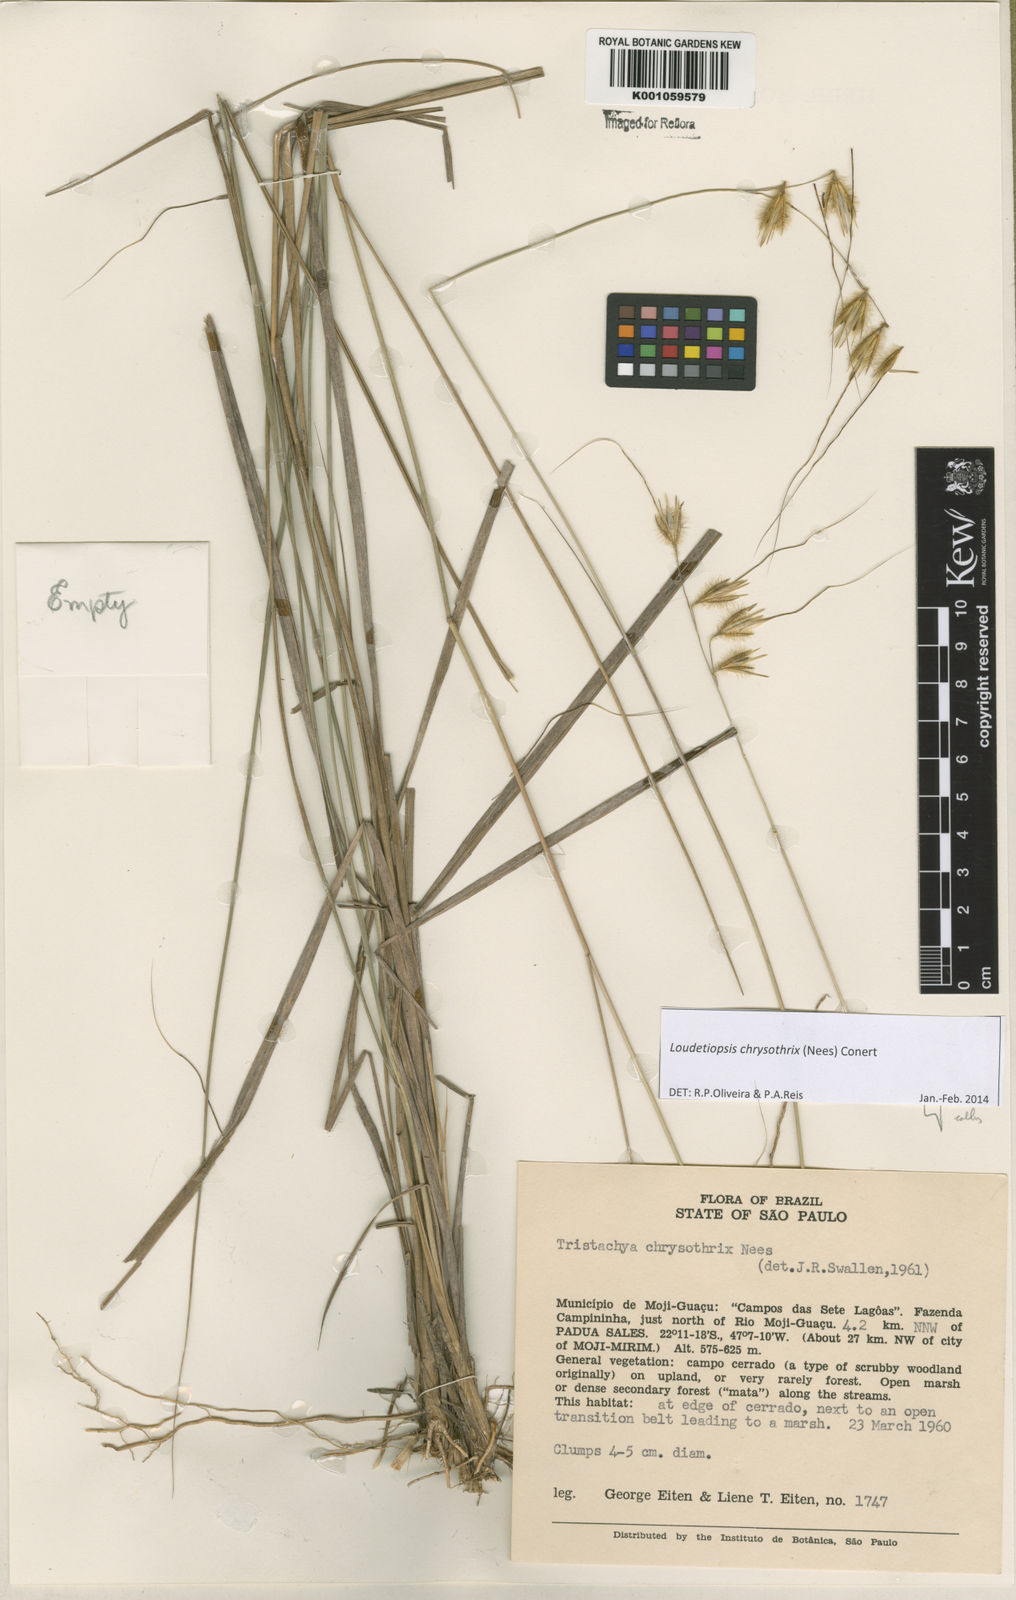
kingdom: Plantae
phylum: Tracheophyta
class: Liliopsida
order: Poales
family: Poaceae
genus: Loudetiopsis
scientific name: Loudetiopsis chrysothrix
